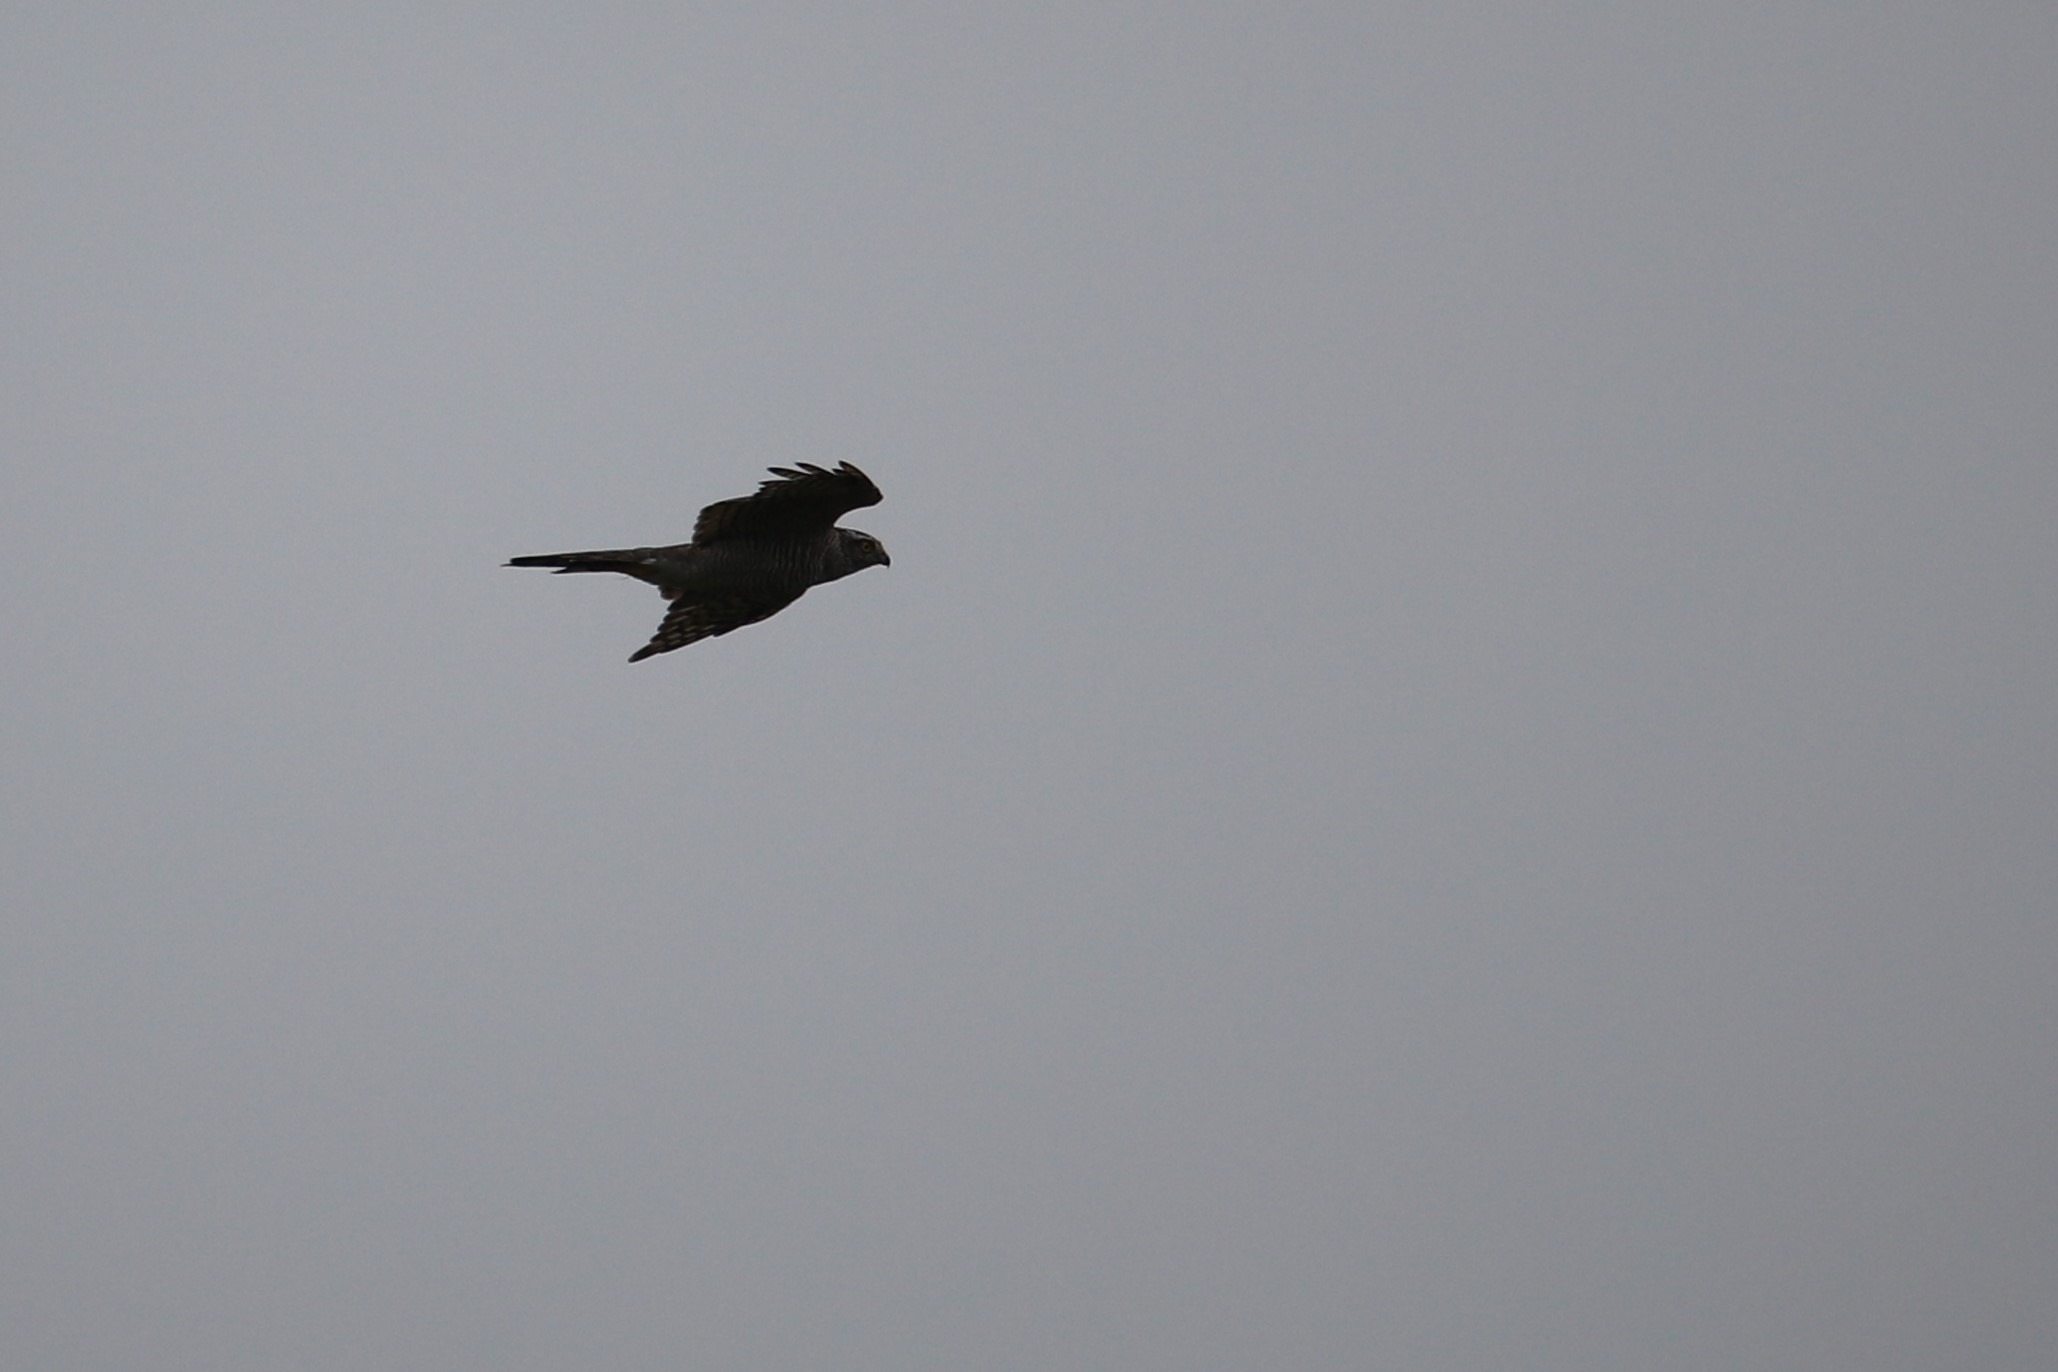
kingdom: Animalia
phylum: Chordata
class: Aves
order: Accipitriformes
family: Accipitridae
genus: Accipiter
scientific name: Accipiter nisus
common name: Spurvehøg
